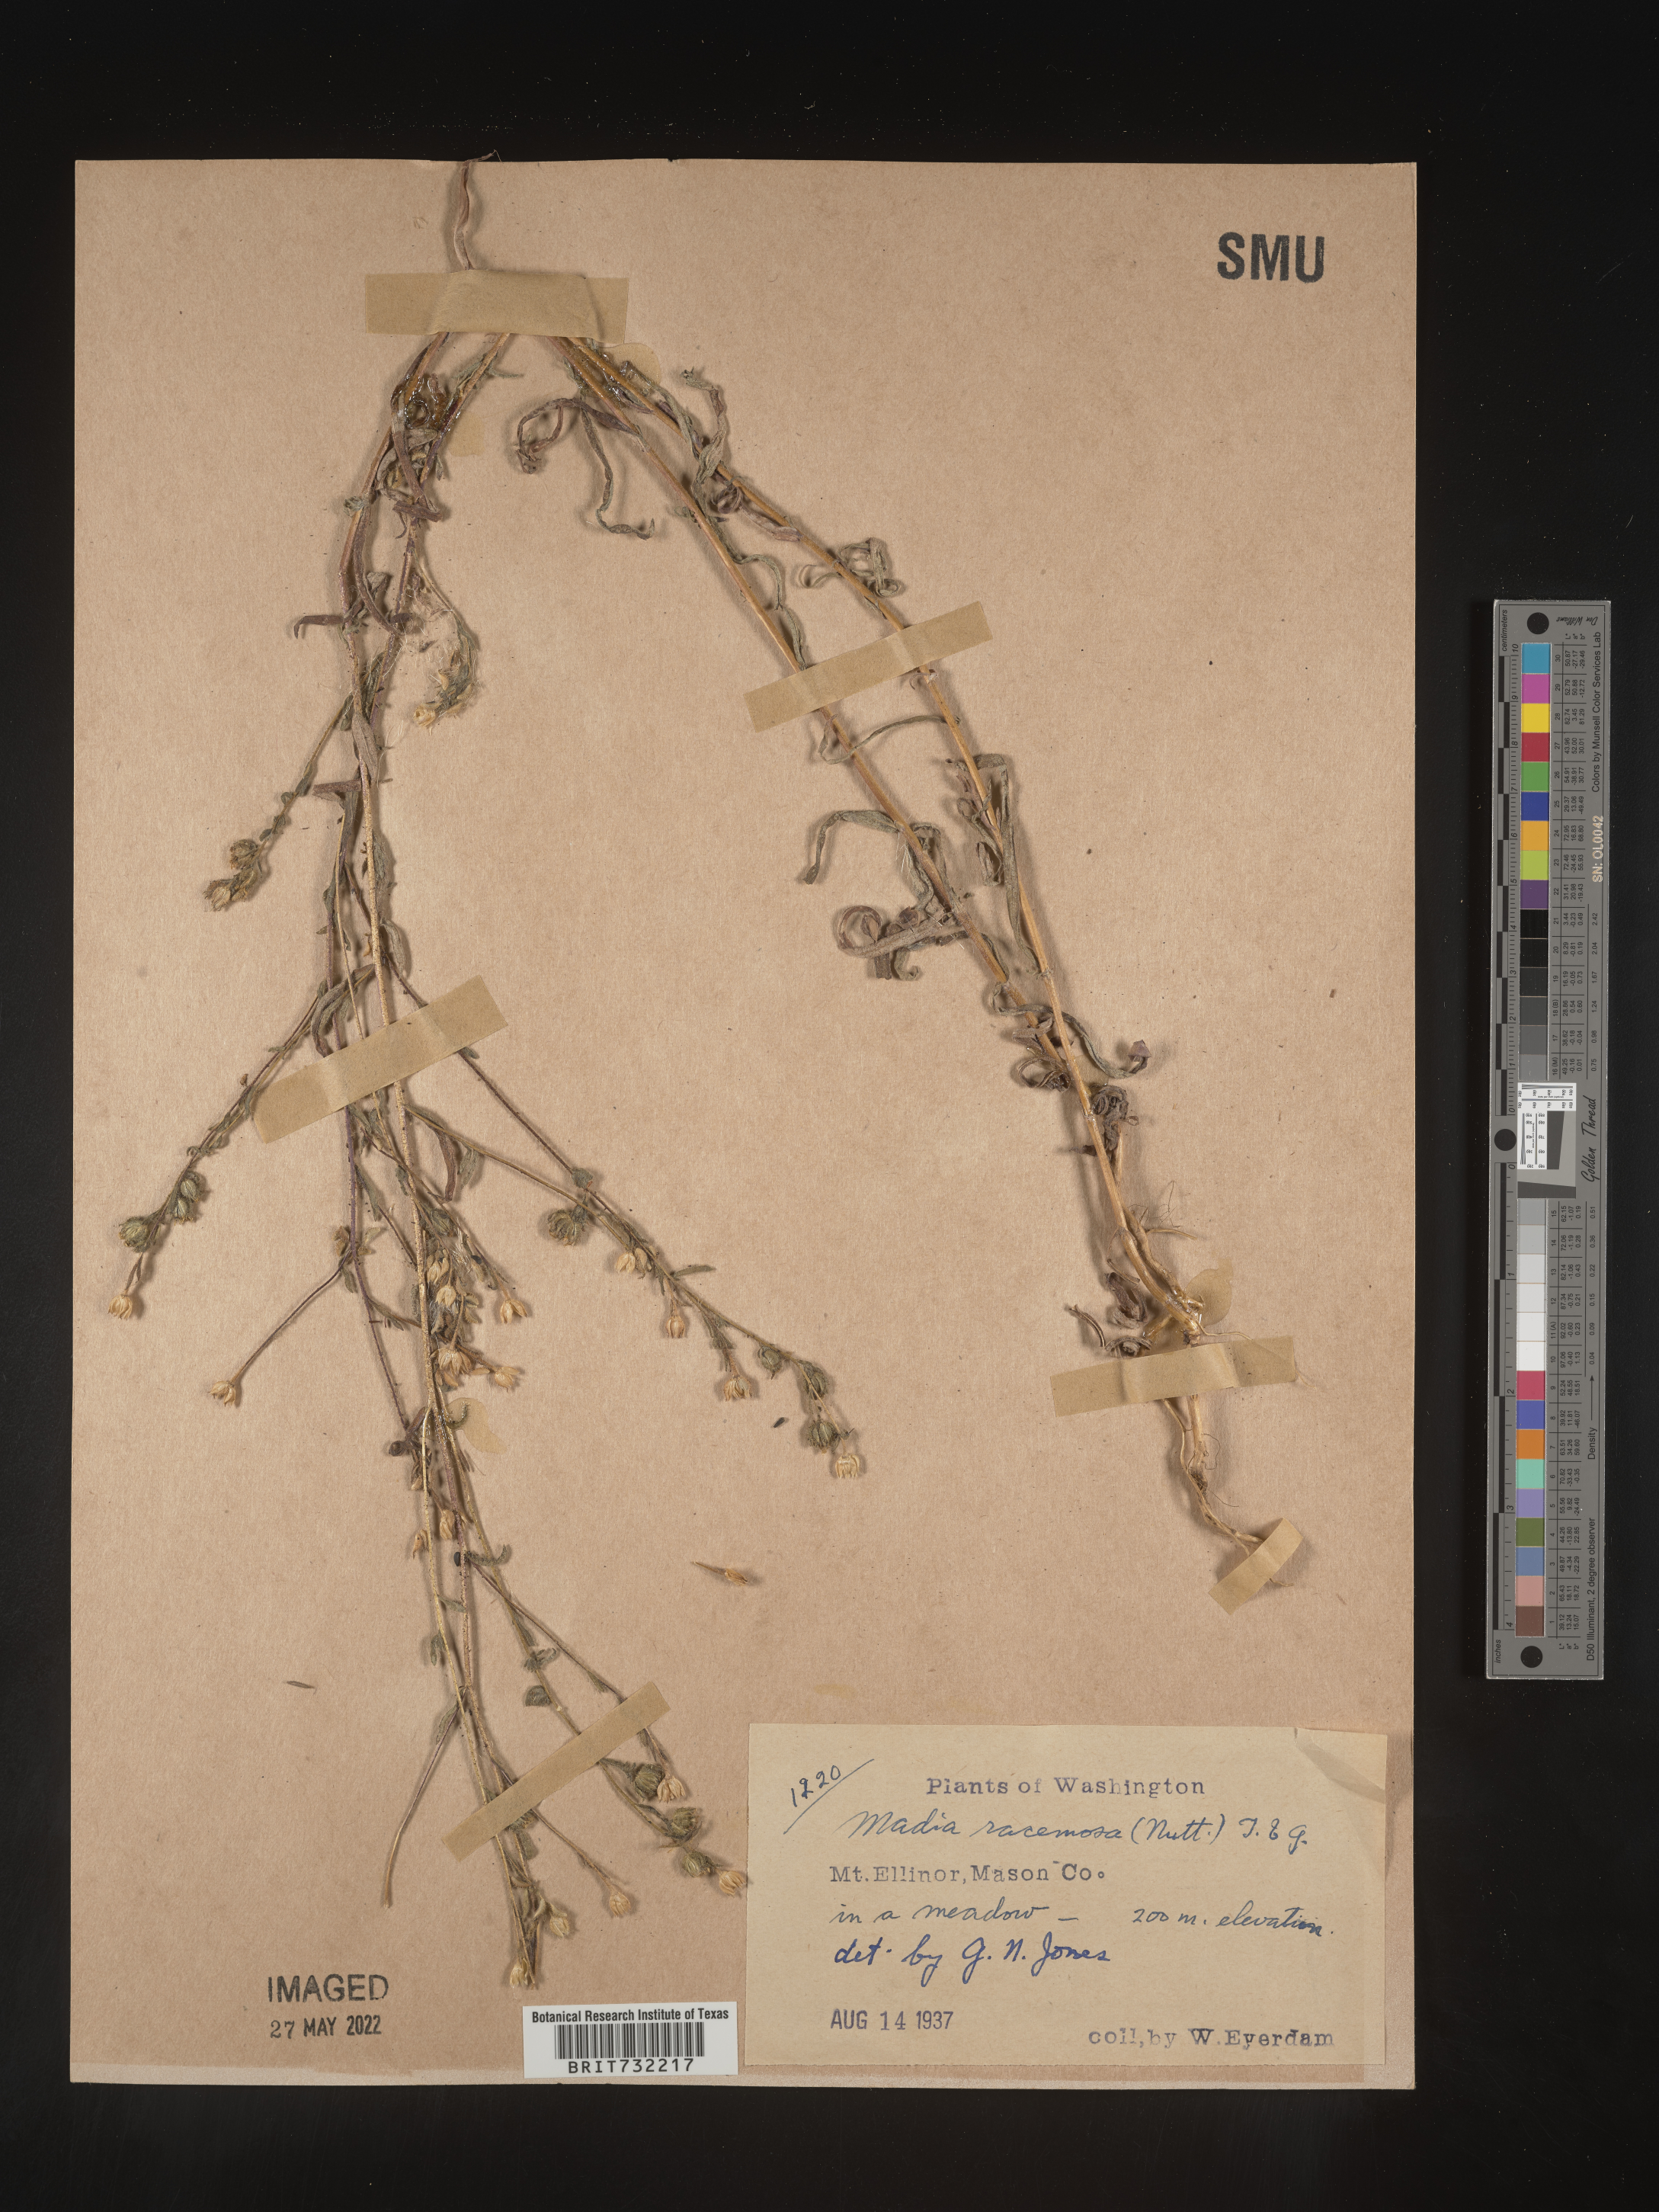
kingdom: Plantae
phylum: Tracheophyta
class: Magnoliopsida
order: Asterales
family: Asteraceae
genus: Madia
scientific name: Madia
